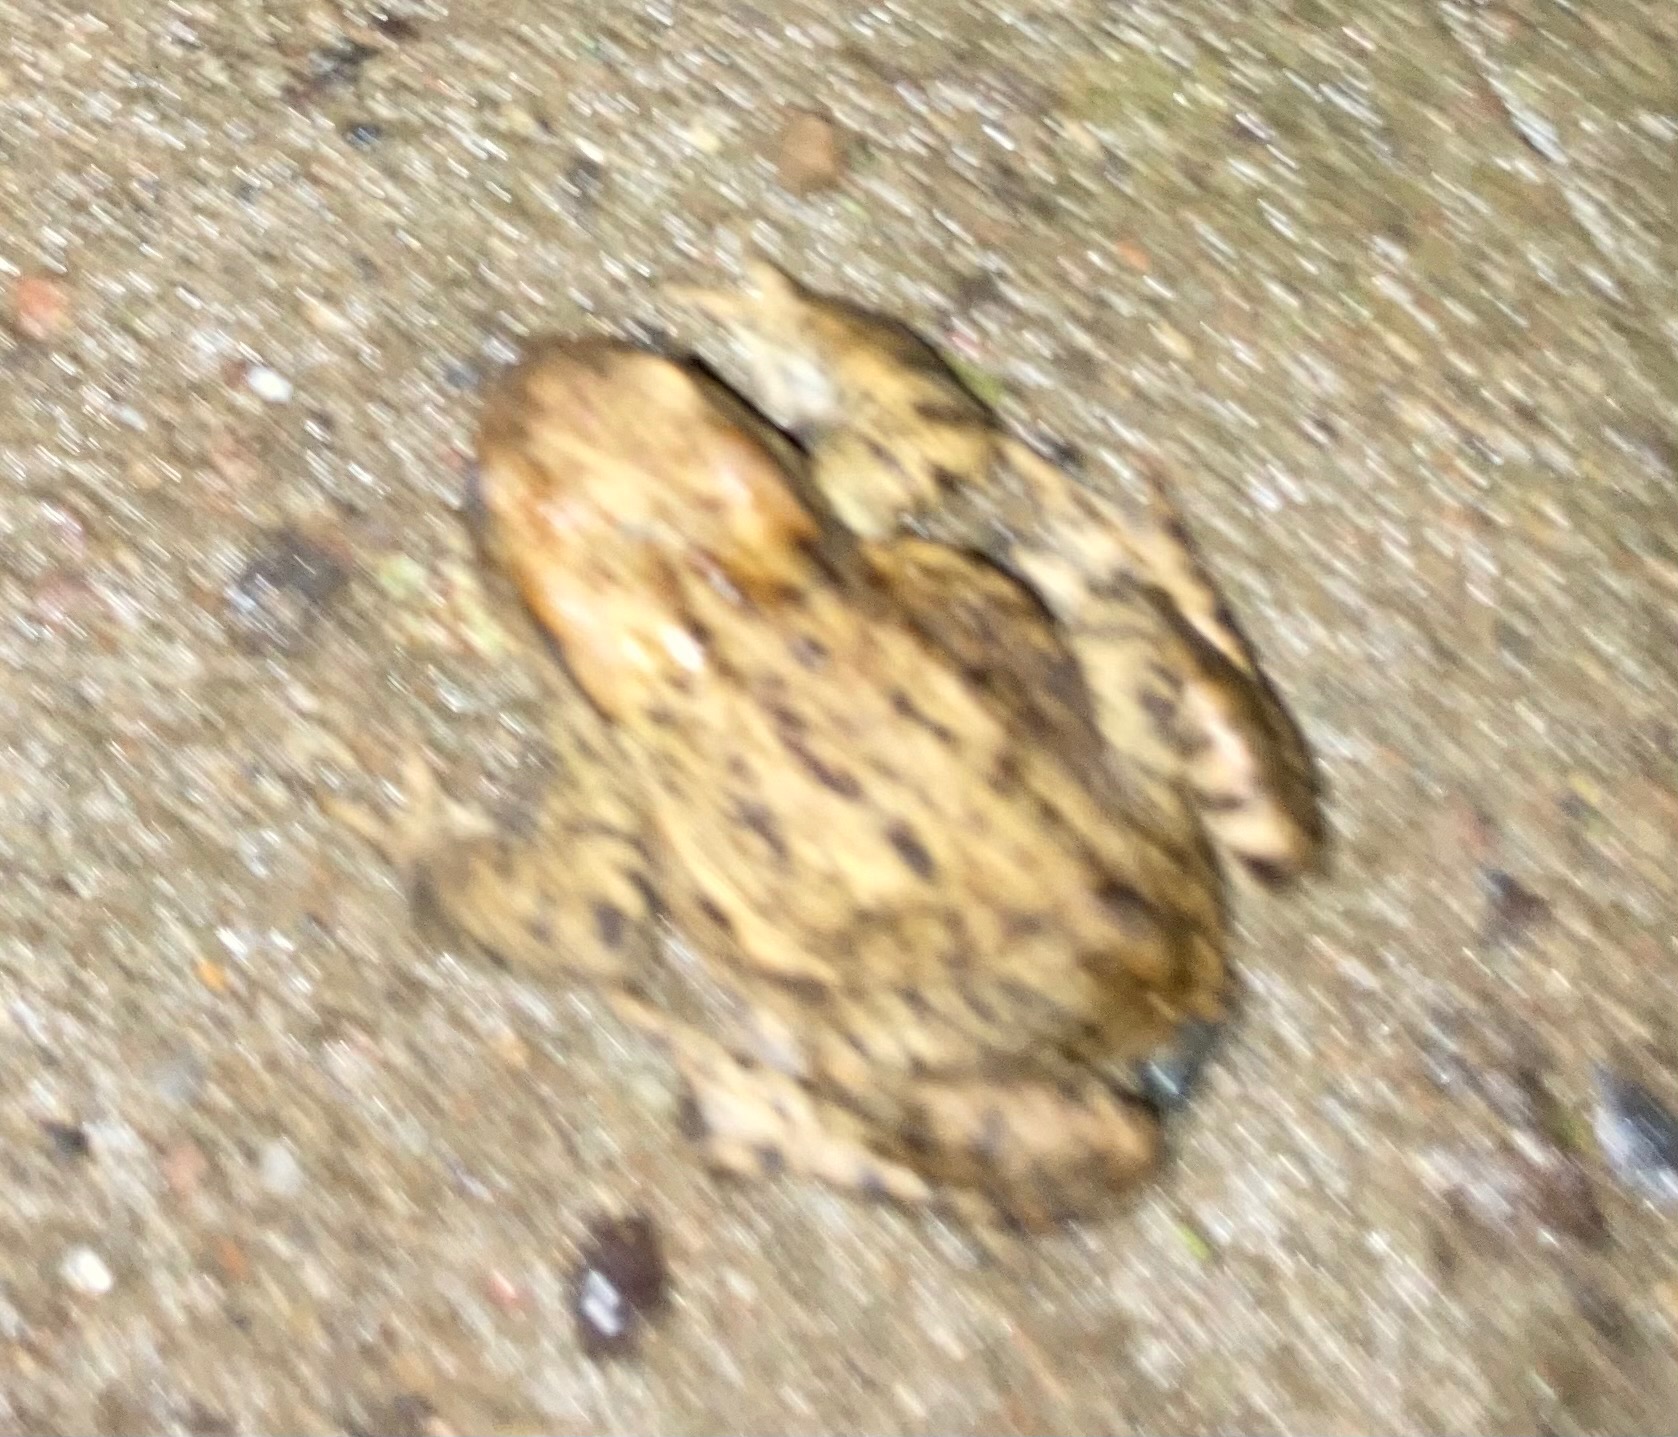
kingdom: Animalia
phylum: Chordata
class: Amphibia
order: Anura
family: Bufonidae
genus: Bufo
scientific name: Bufo bufo
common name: Skrubtudse
